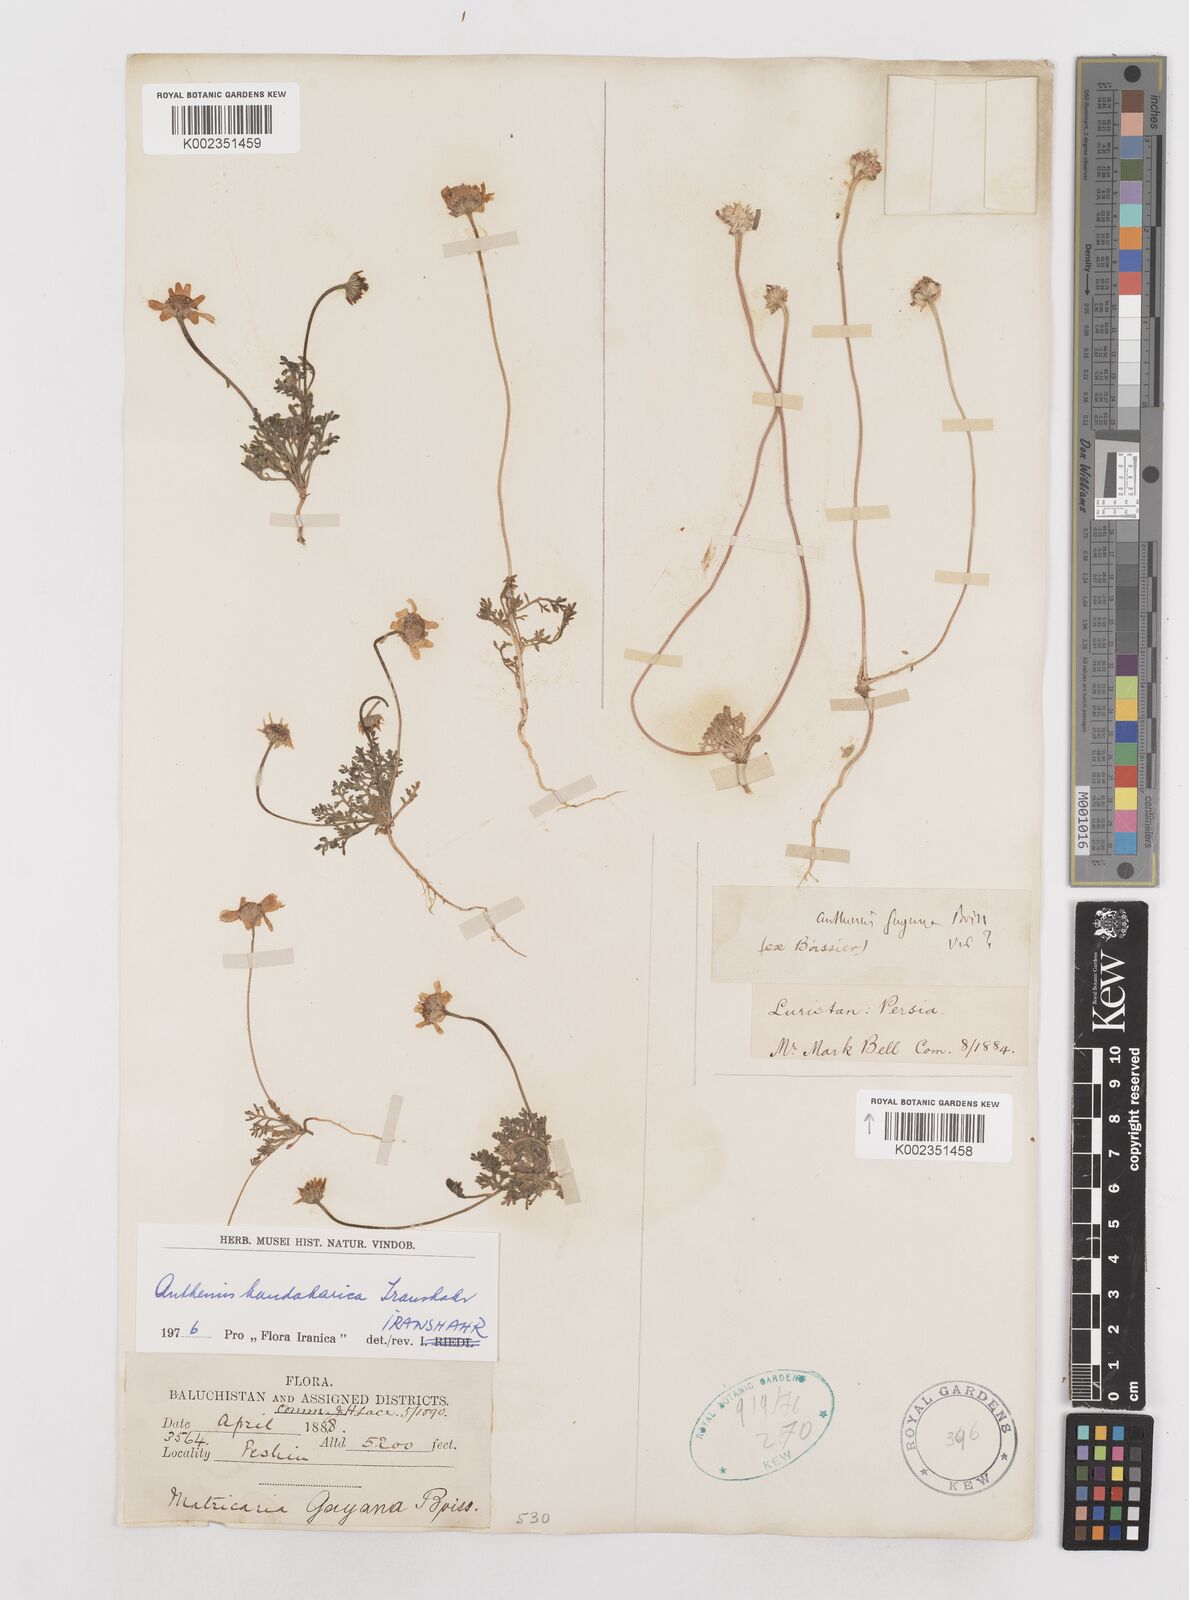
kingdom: Plantae
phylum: Tracheophyta
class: Magnoliopsida
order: Asterales
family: Asteraceae
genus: Anthemis
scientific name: Anthemis gayana
